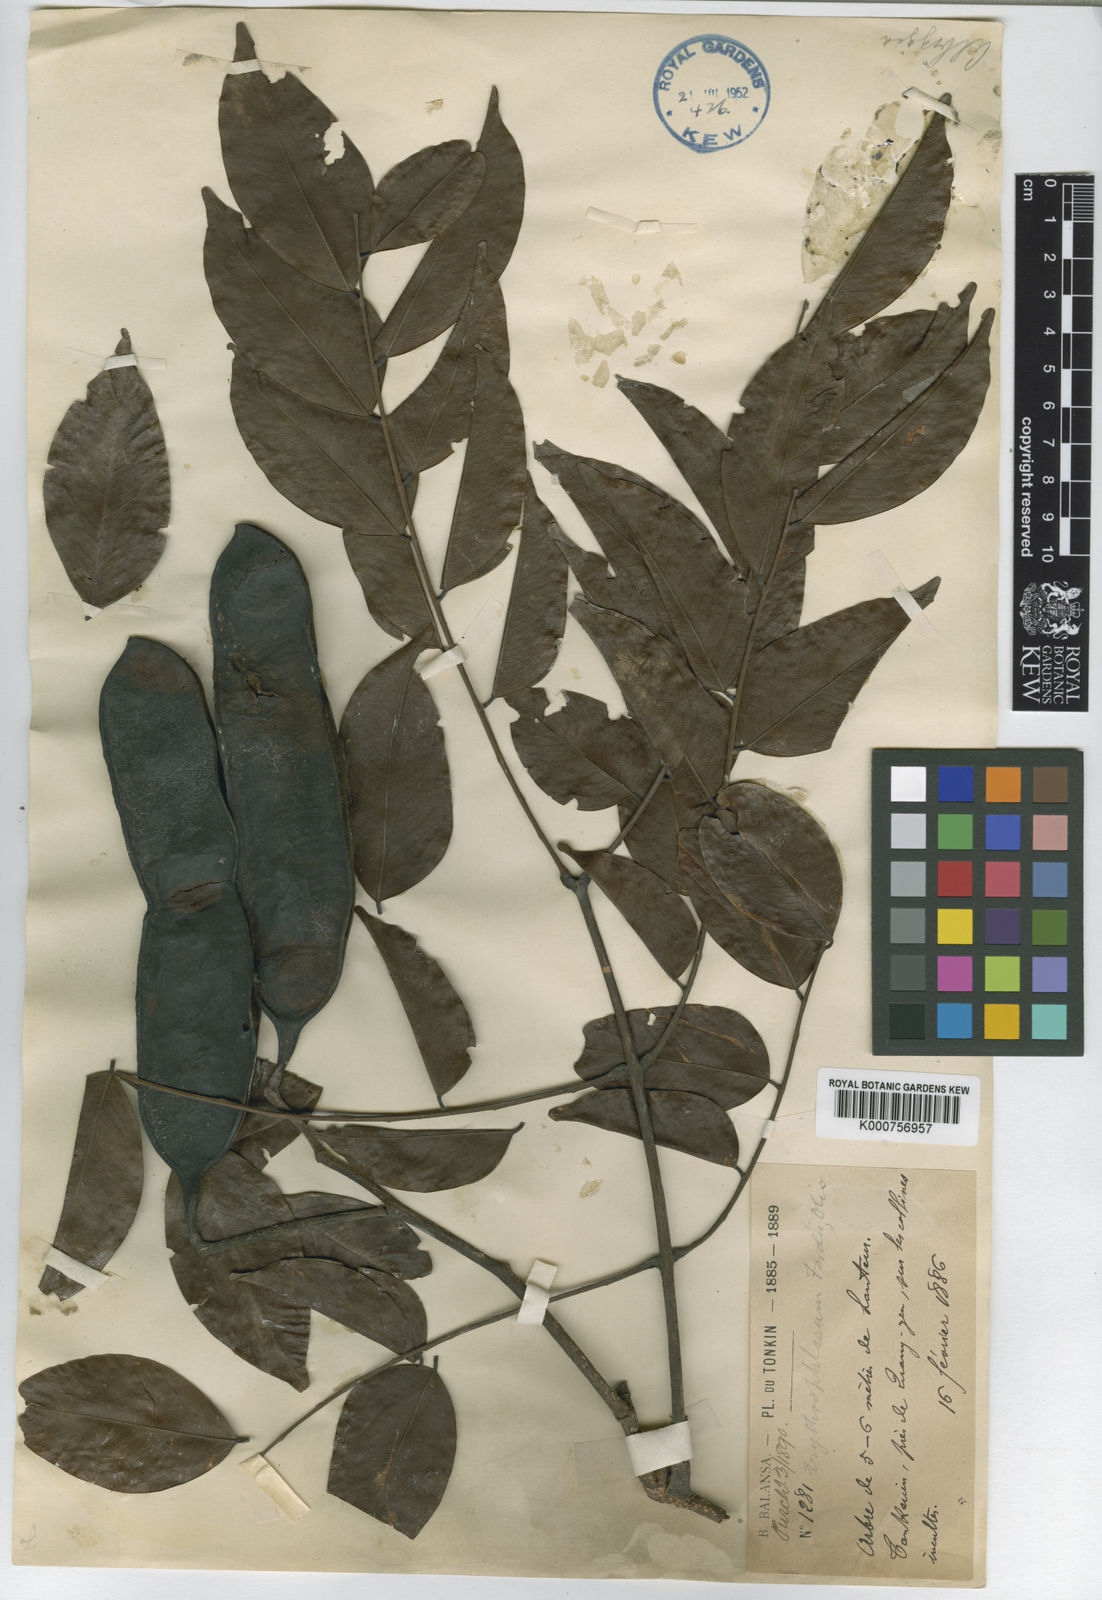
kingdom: Plantae
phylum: Tracheophyta
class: Magnoliopsida
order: Fabales
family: Fabaceae
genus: Erythrophleum
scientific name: Erythrophleum fordii
